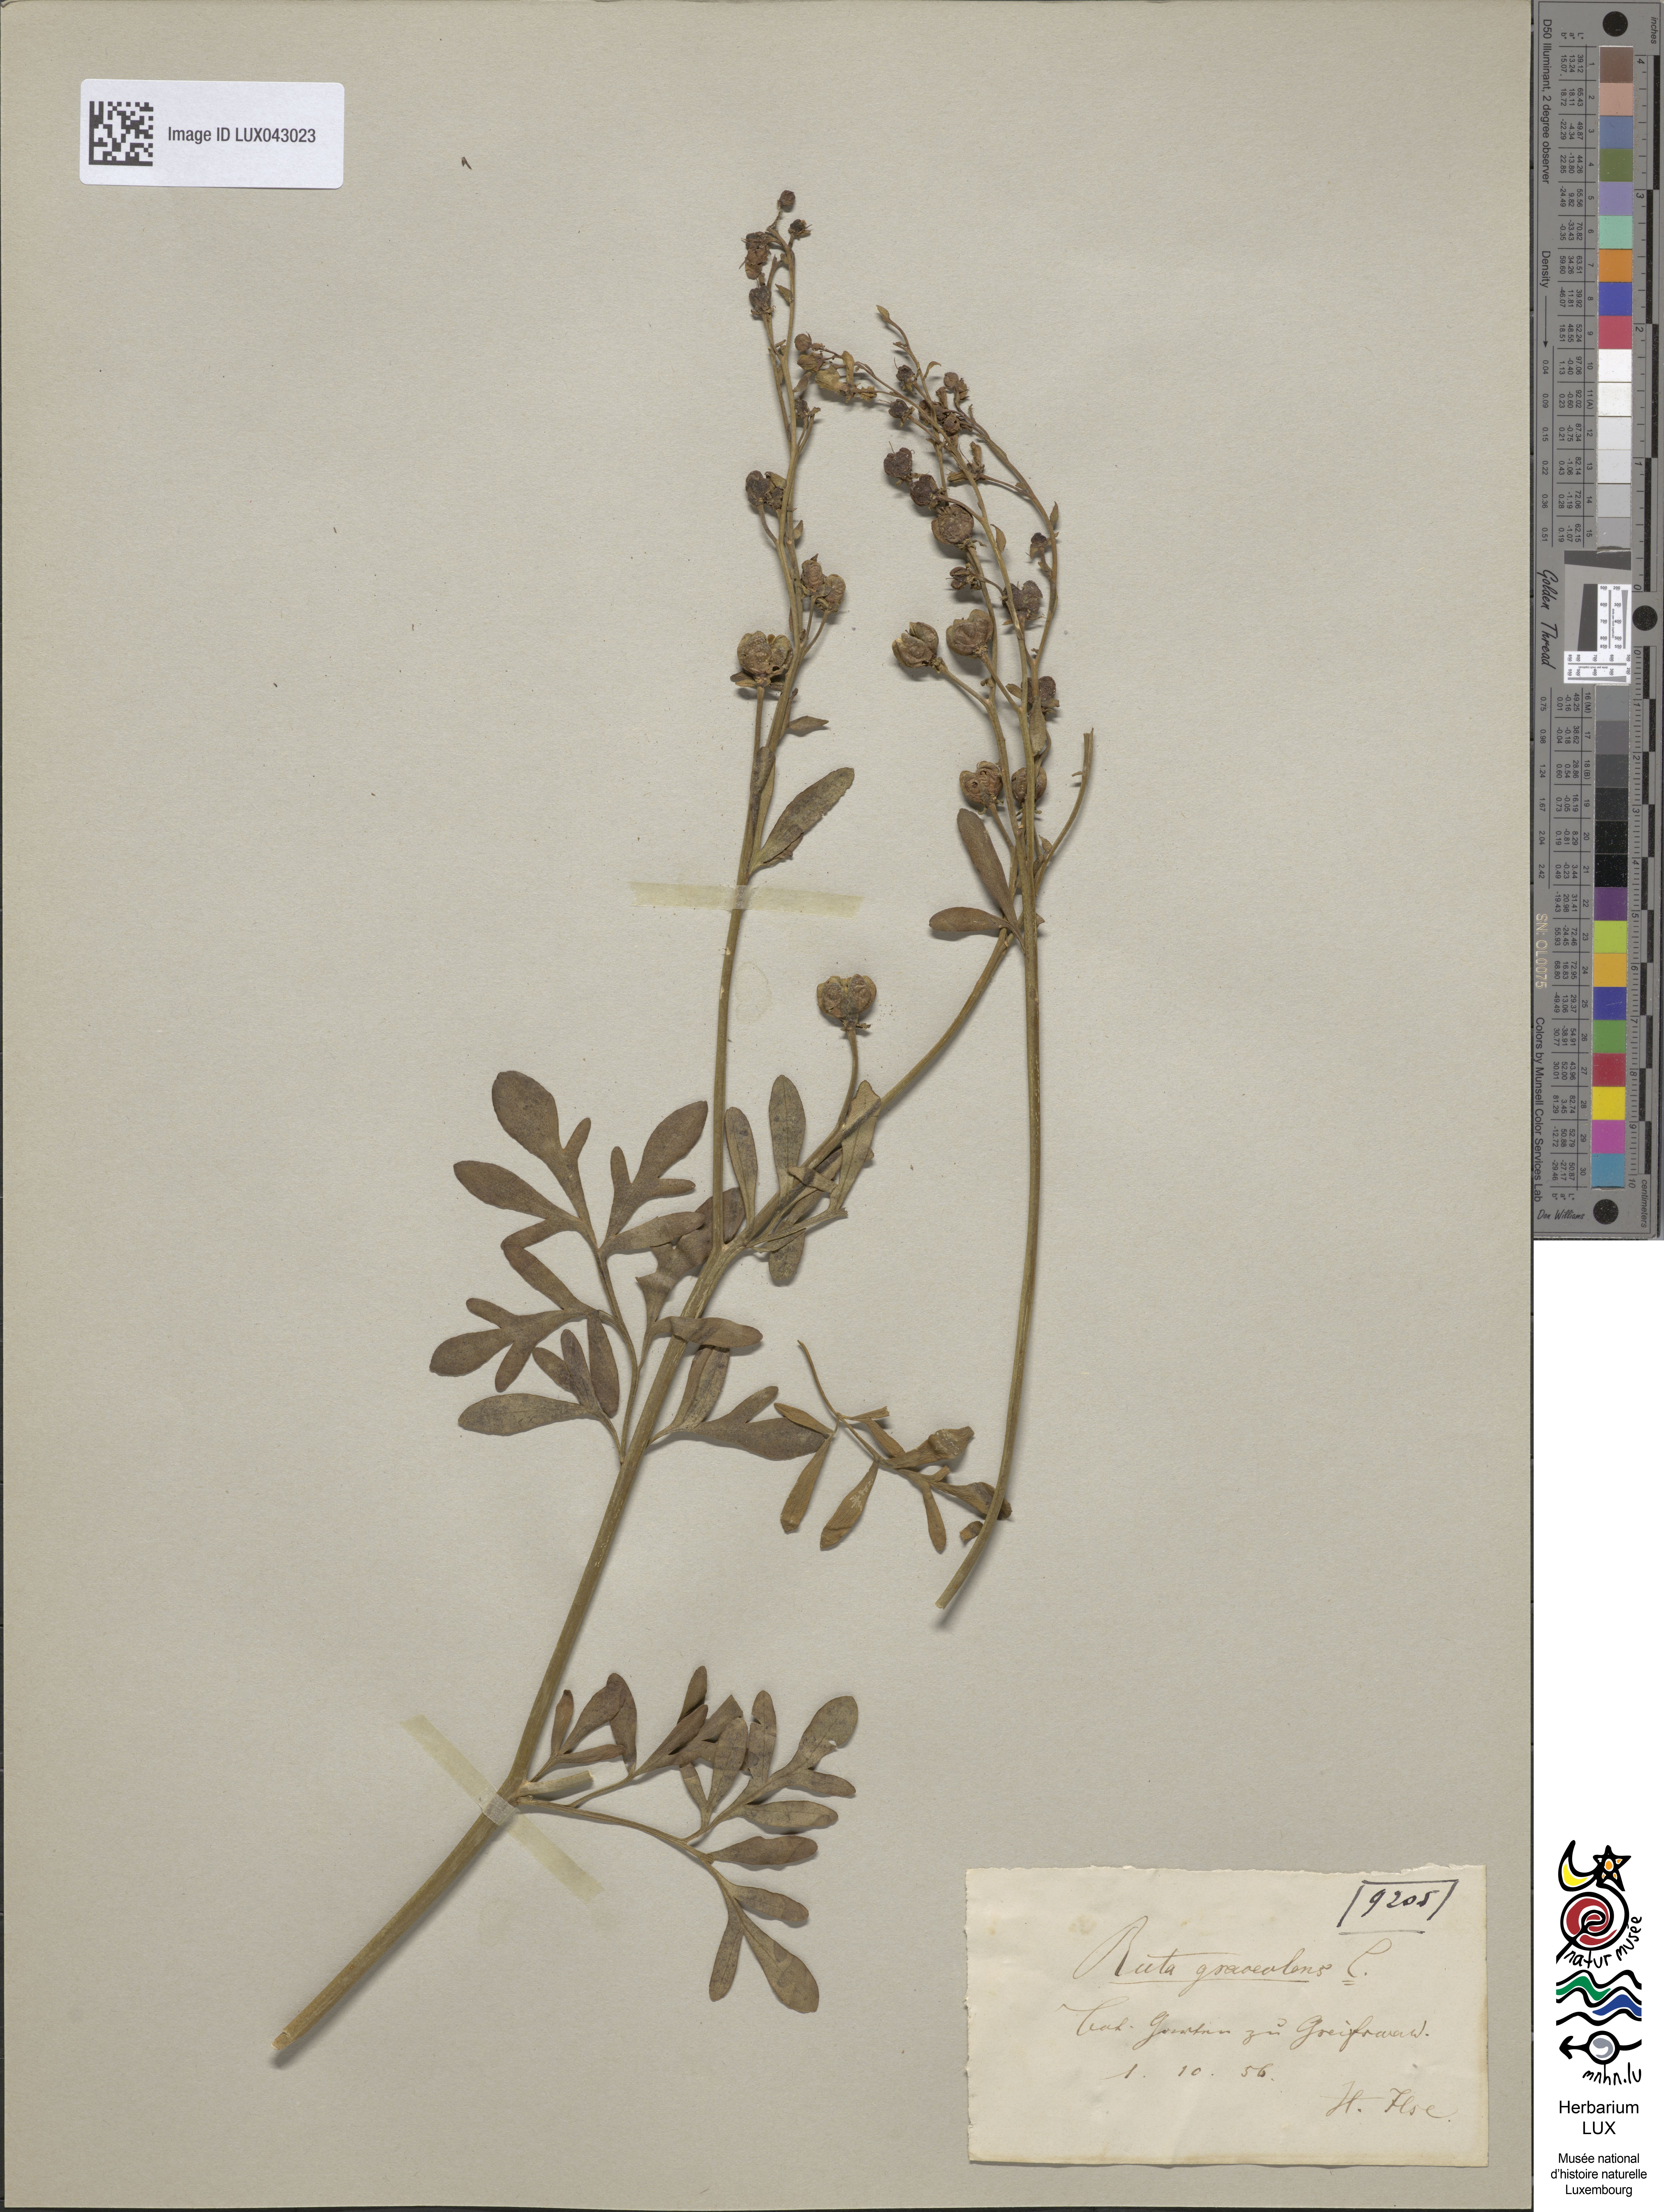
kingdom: Plantae
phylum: Tracheophyta
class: Magnoliopsida
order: Sapindales
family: Rutaceae
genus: Ruta
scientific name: Ruta graveolens
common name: Common rue
